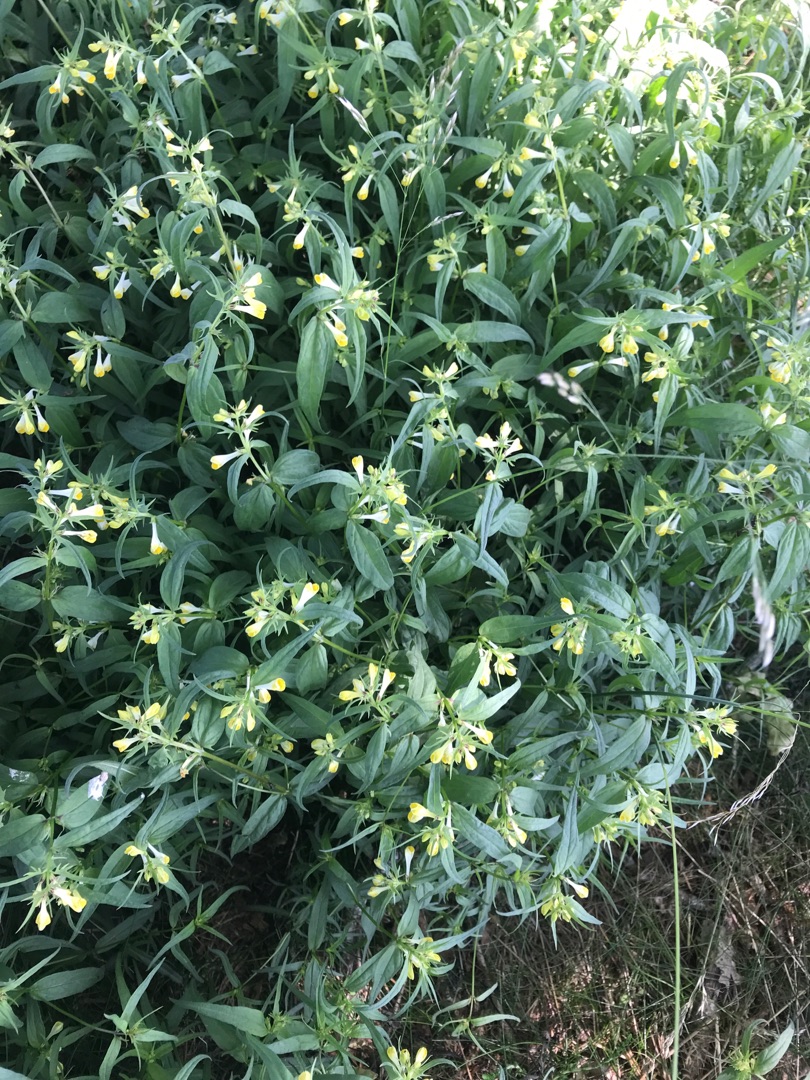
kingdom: Plantae
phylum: Tracheophyta
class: Magnoliopsida
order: Lamiales
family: Orobanchaceae
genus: Melampyrum
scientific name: Melampyrum pratense
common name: Almindelig kohvede
